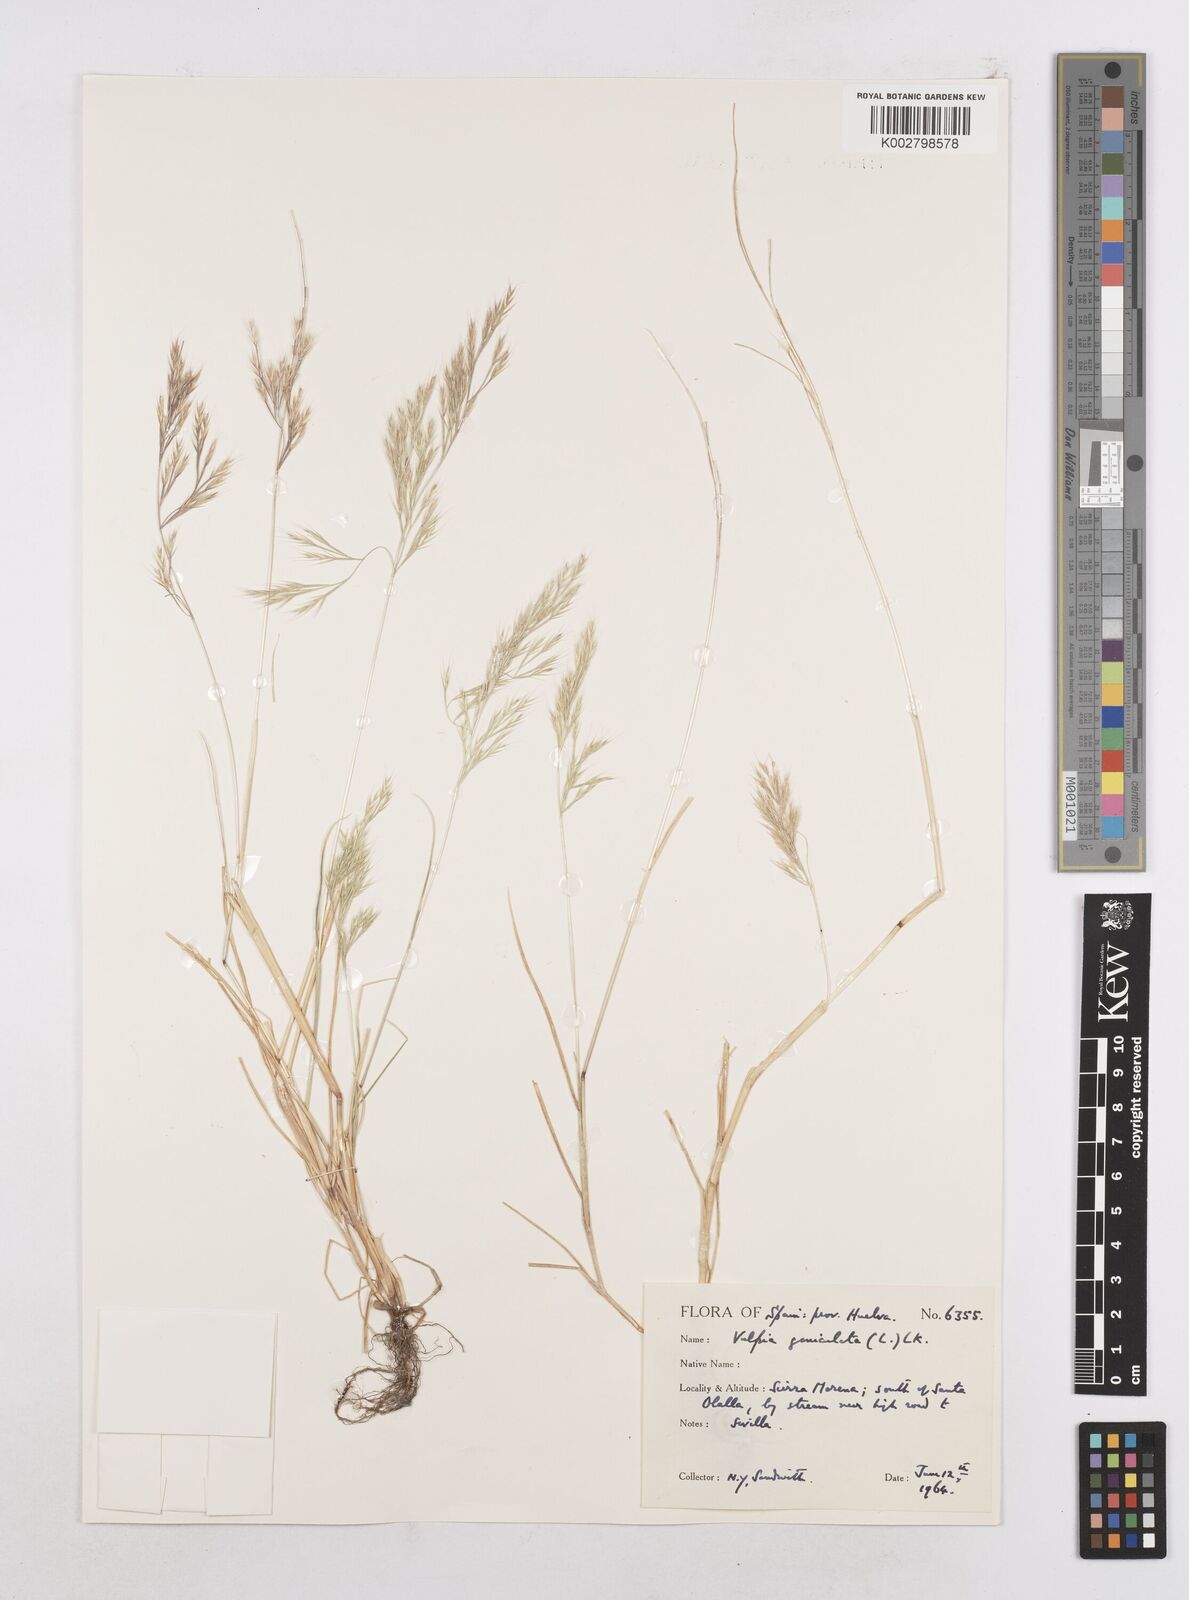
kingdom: Plantae
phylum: Tracheophyta
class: Liliopsida
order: Poales
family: Poaceae
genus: Festuca
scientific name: Festuca geniculata
